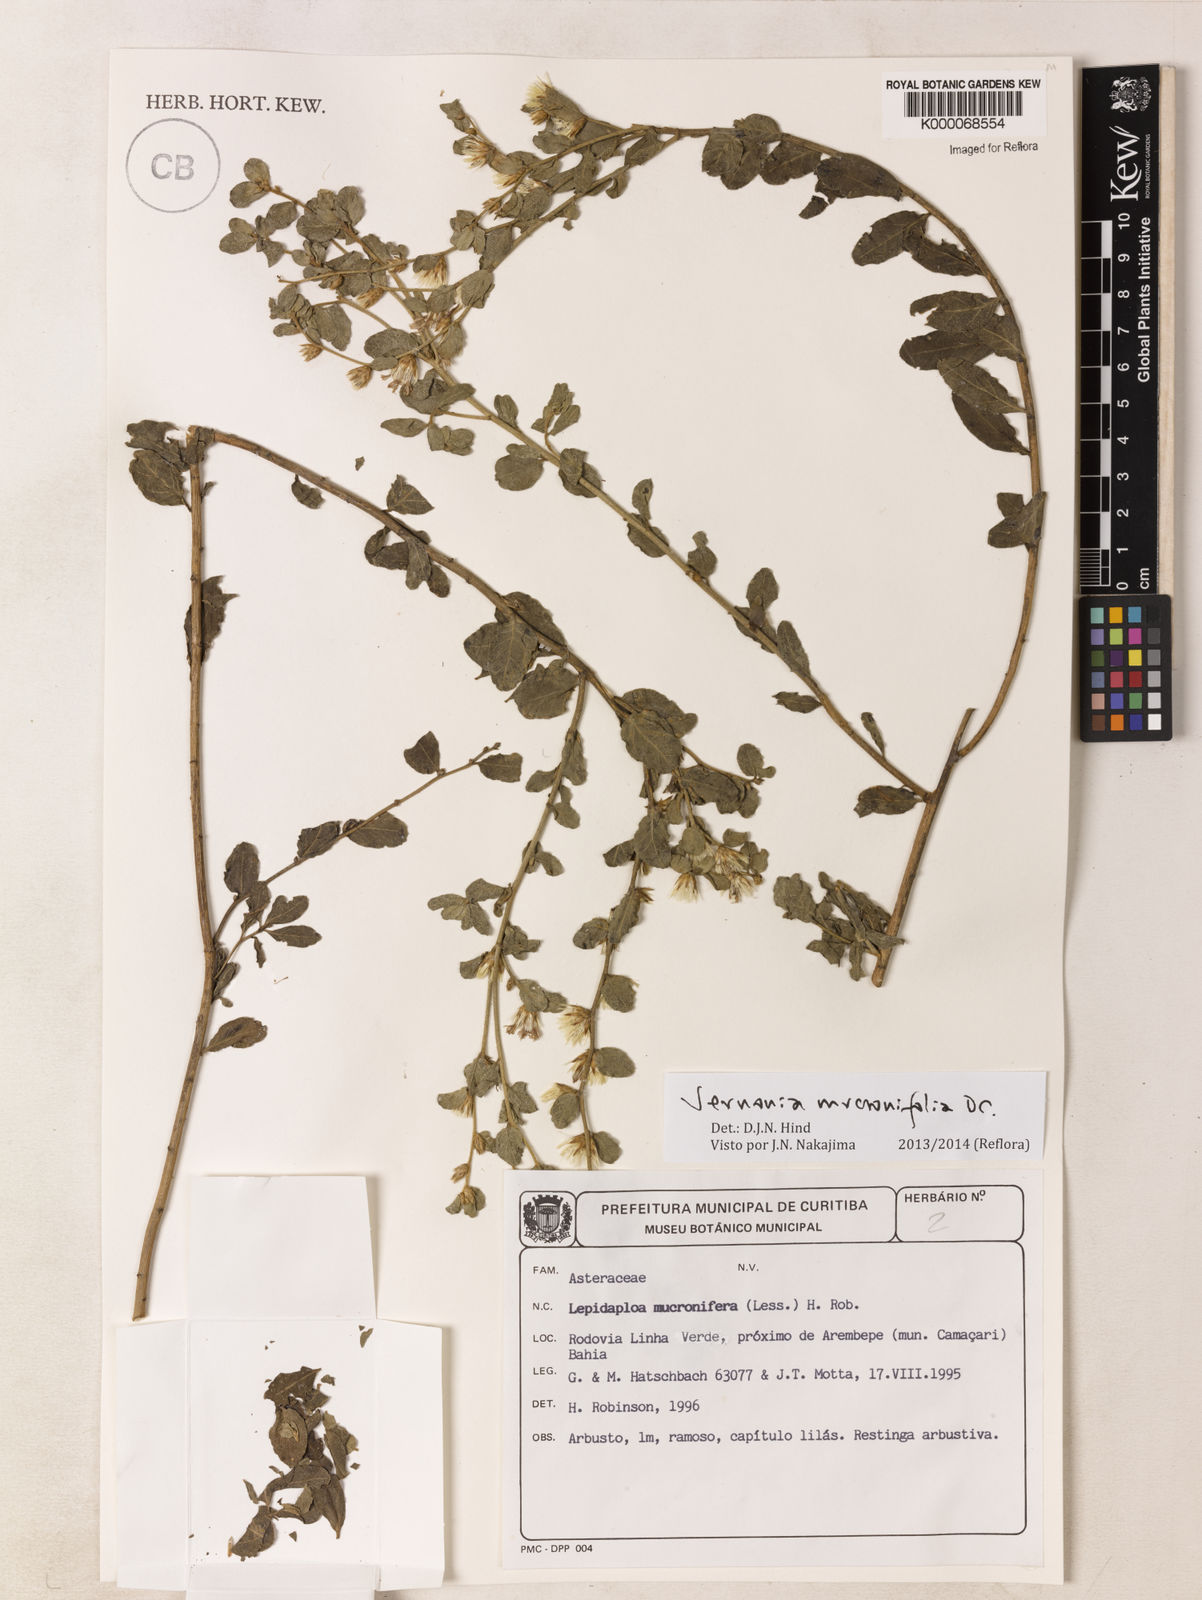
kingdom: Plantae
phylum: Tracheophyta
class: Magnoliopsida
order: Asterales
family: Asteraceae
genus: Lepidaploa
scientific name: Lepidaploa mucronifolia
